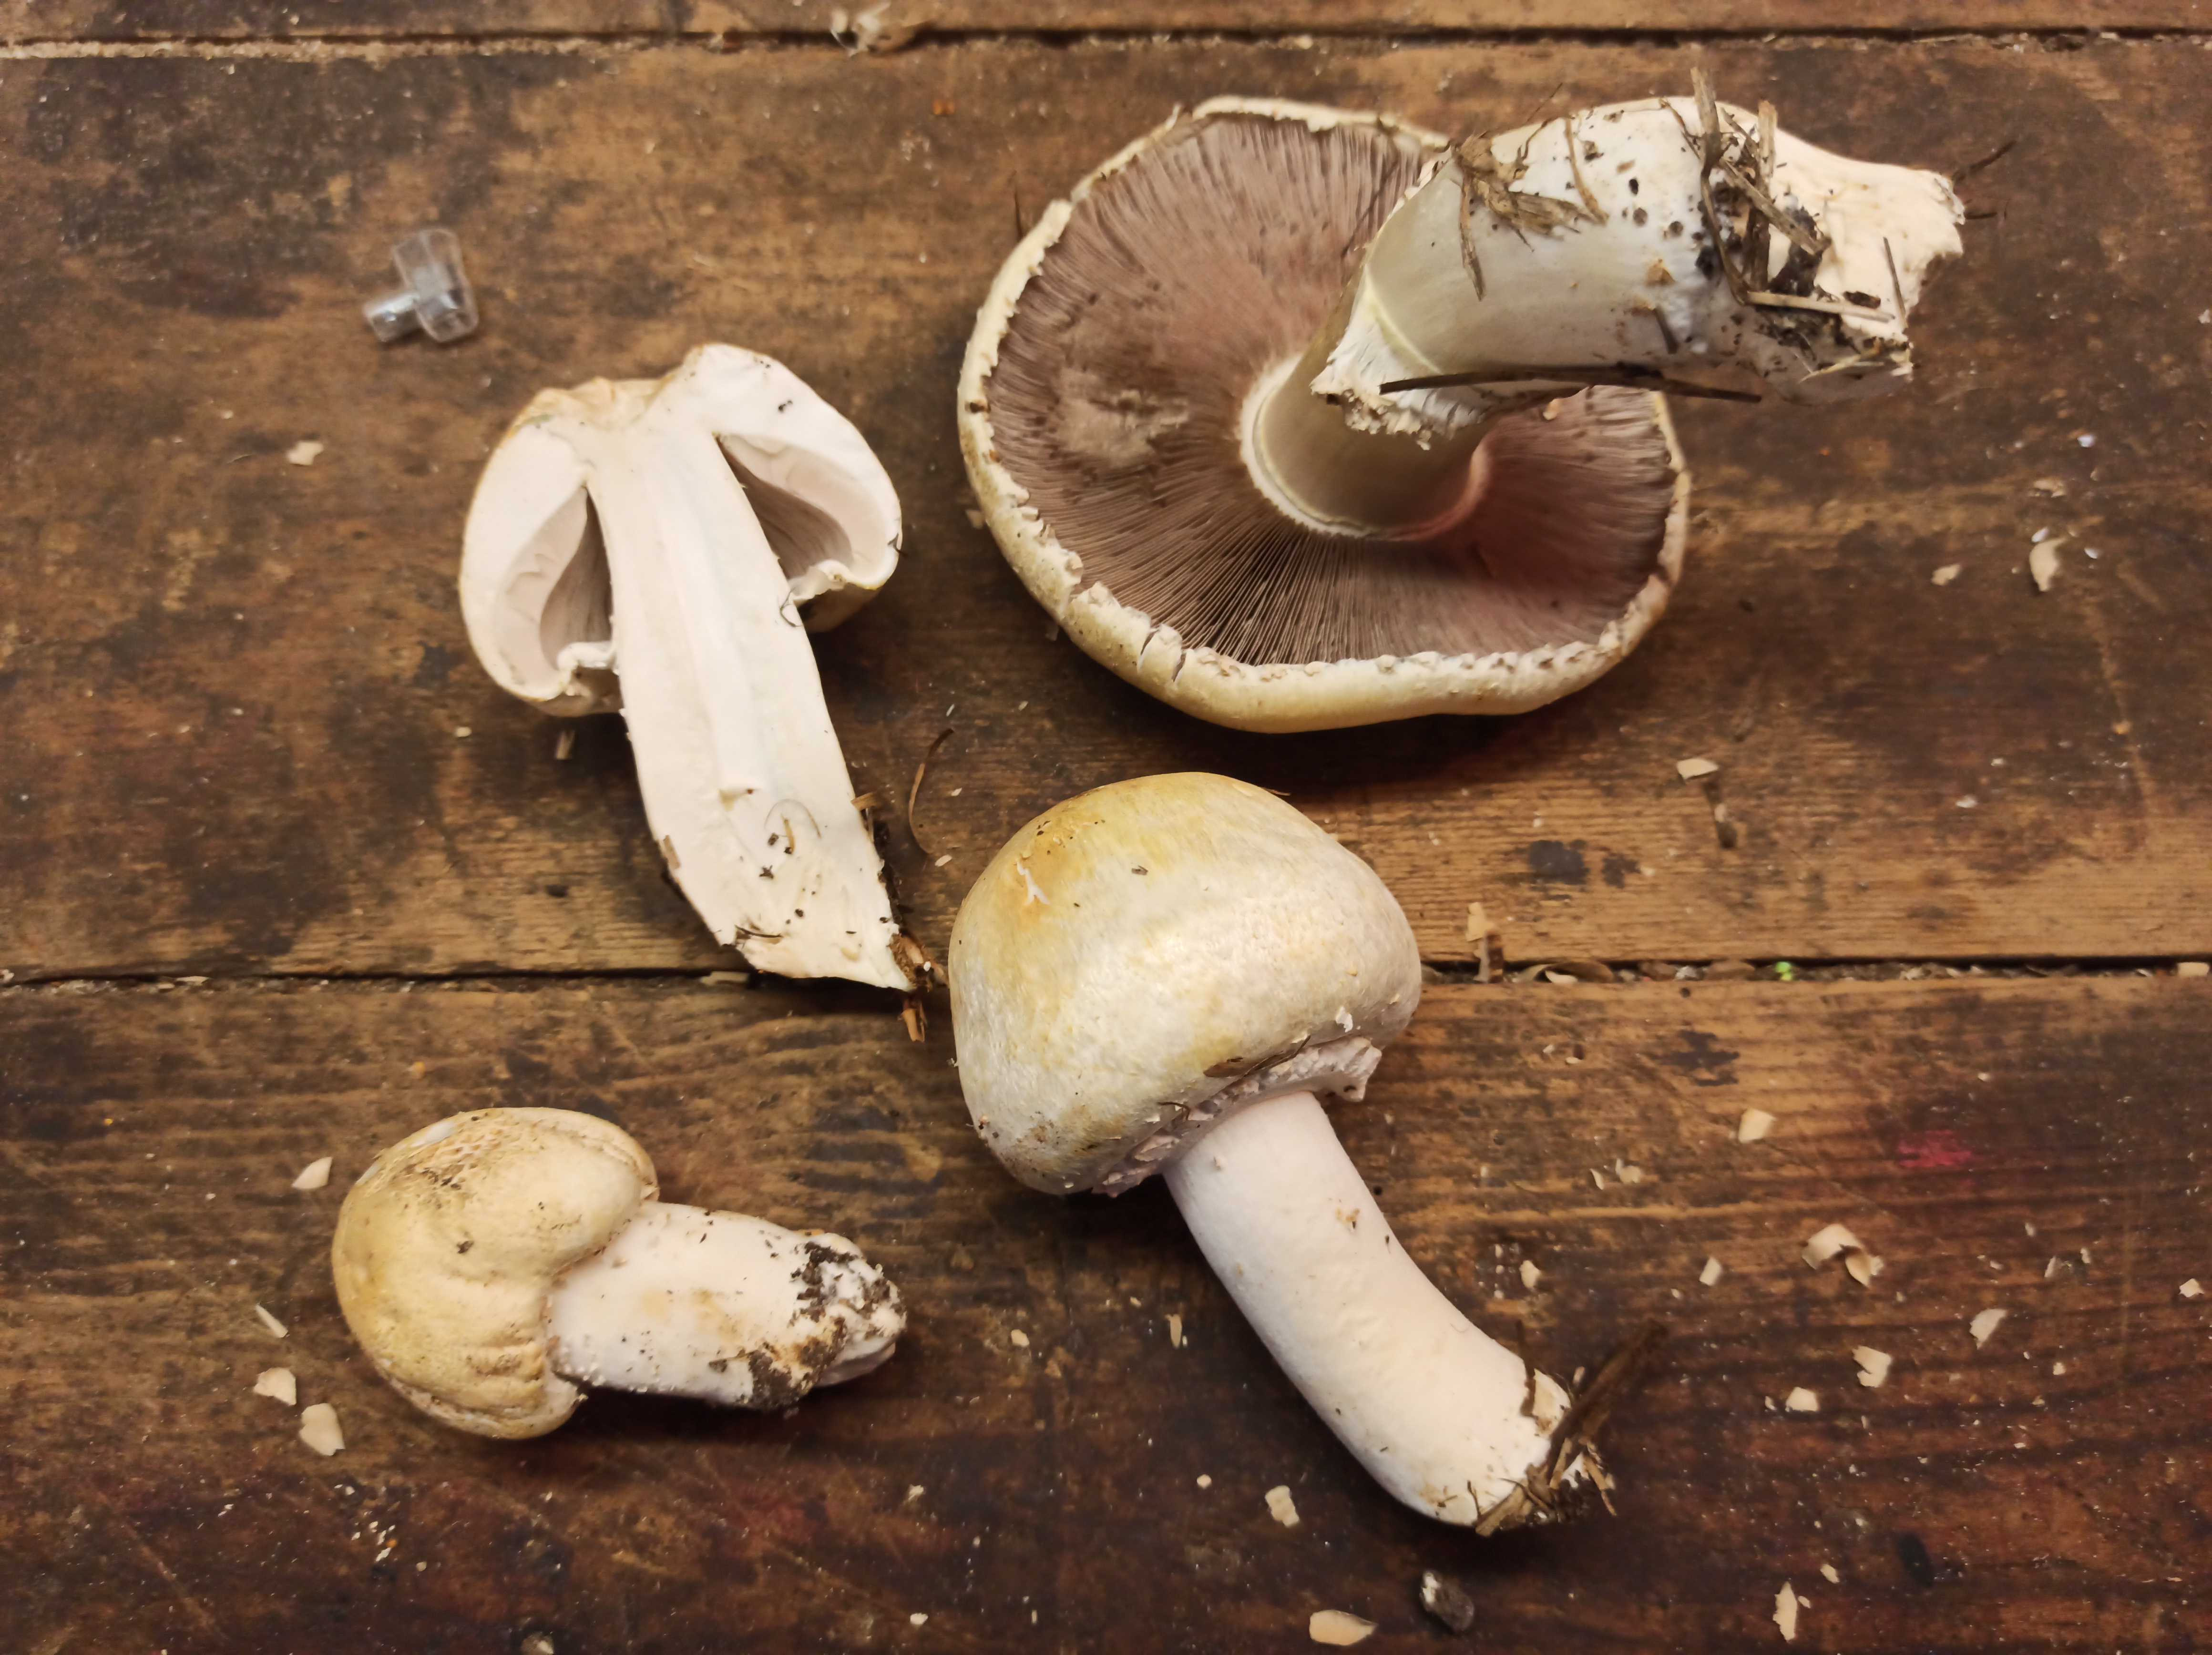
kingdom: Fungi
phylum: Basidiomycota
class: Agaricomycetes
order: Agaricales
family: Agaricaceae
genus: Agaricus
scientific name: Agaricus
